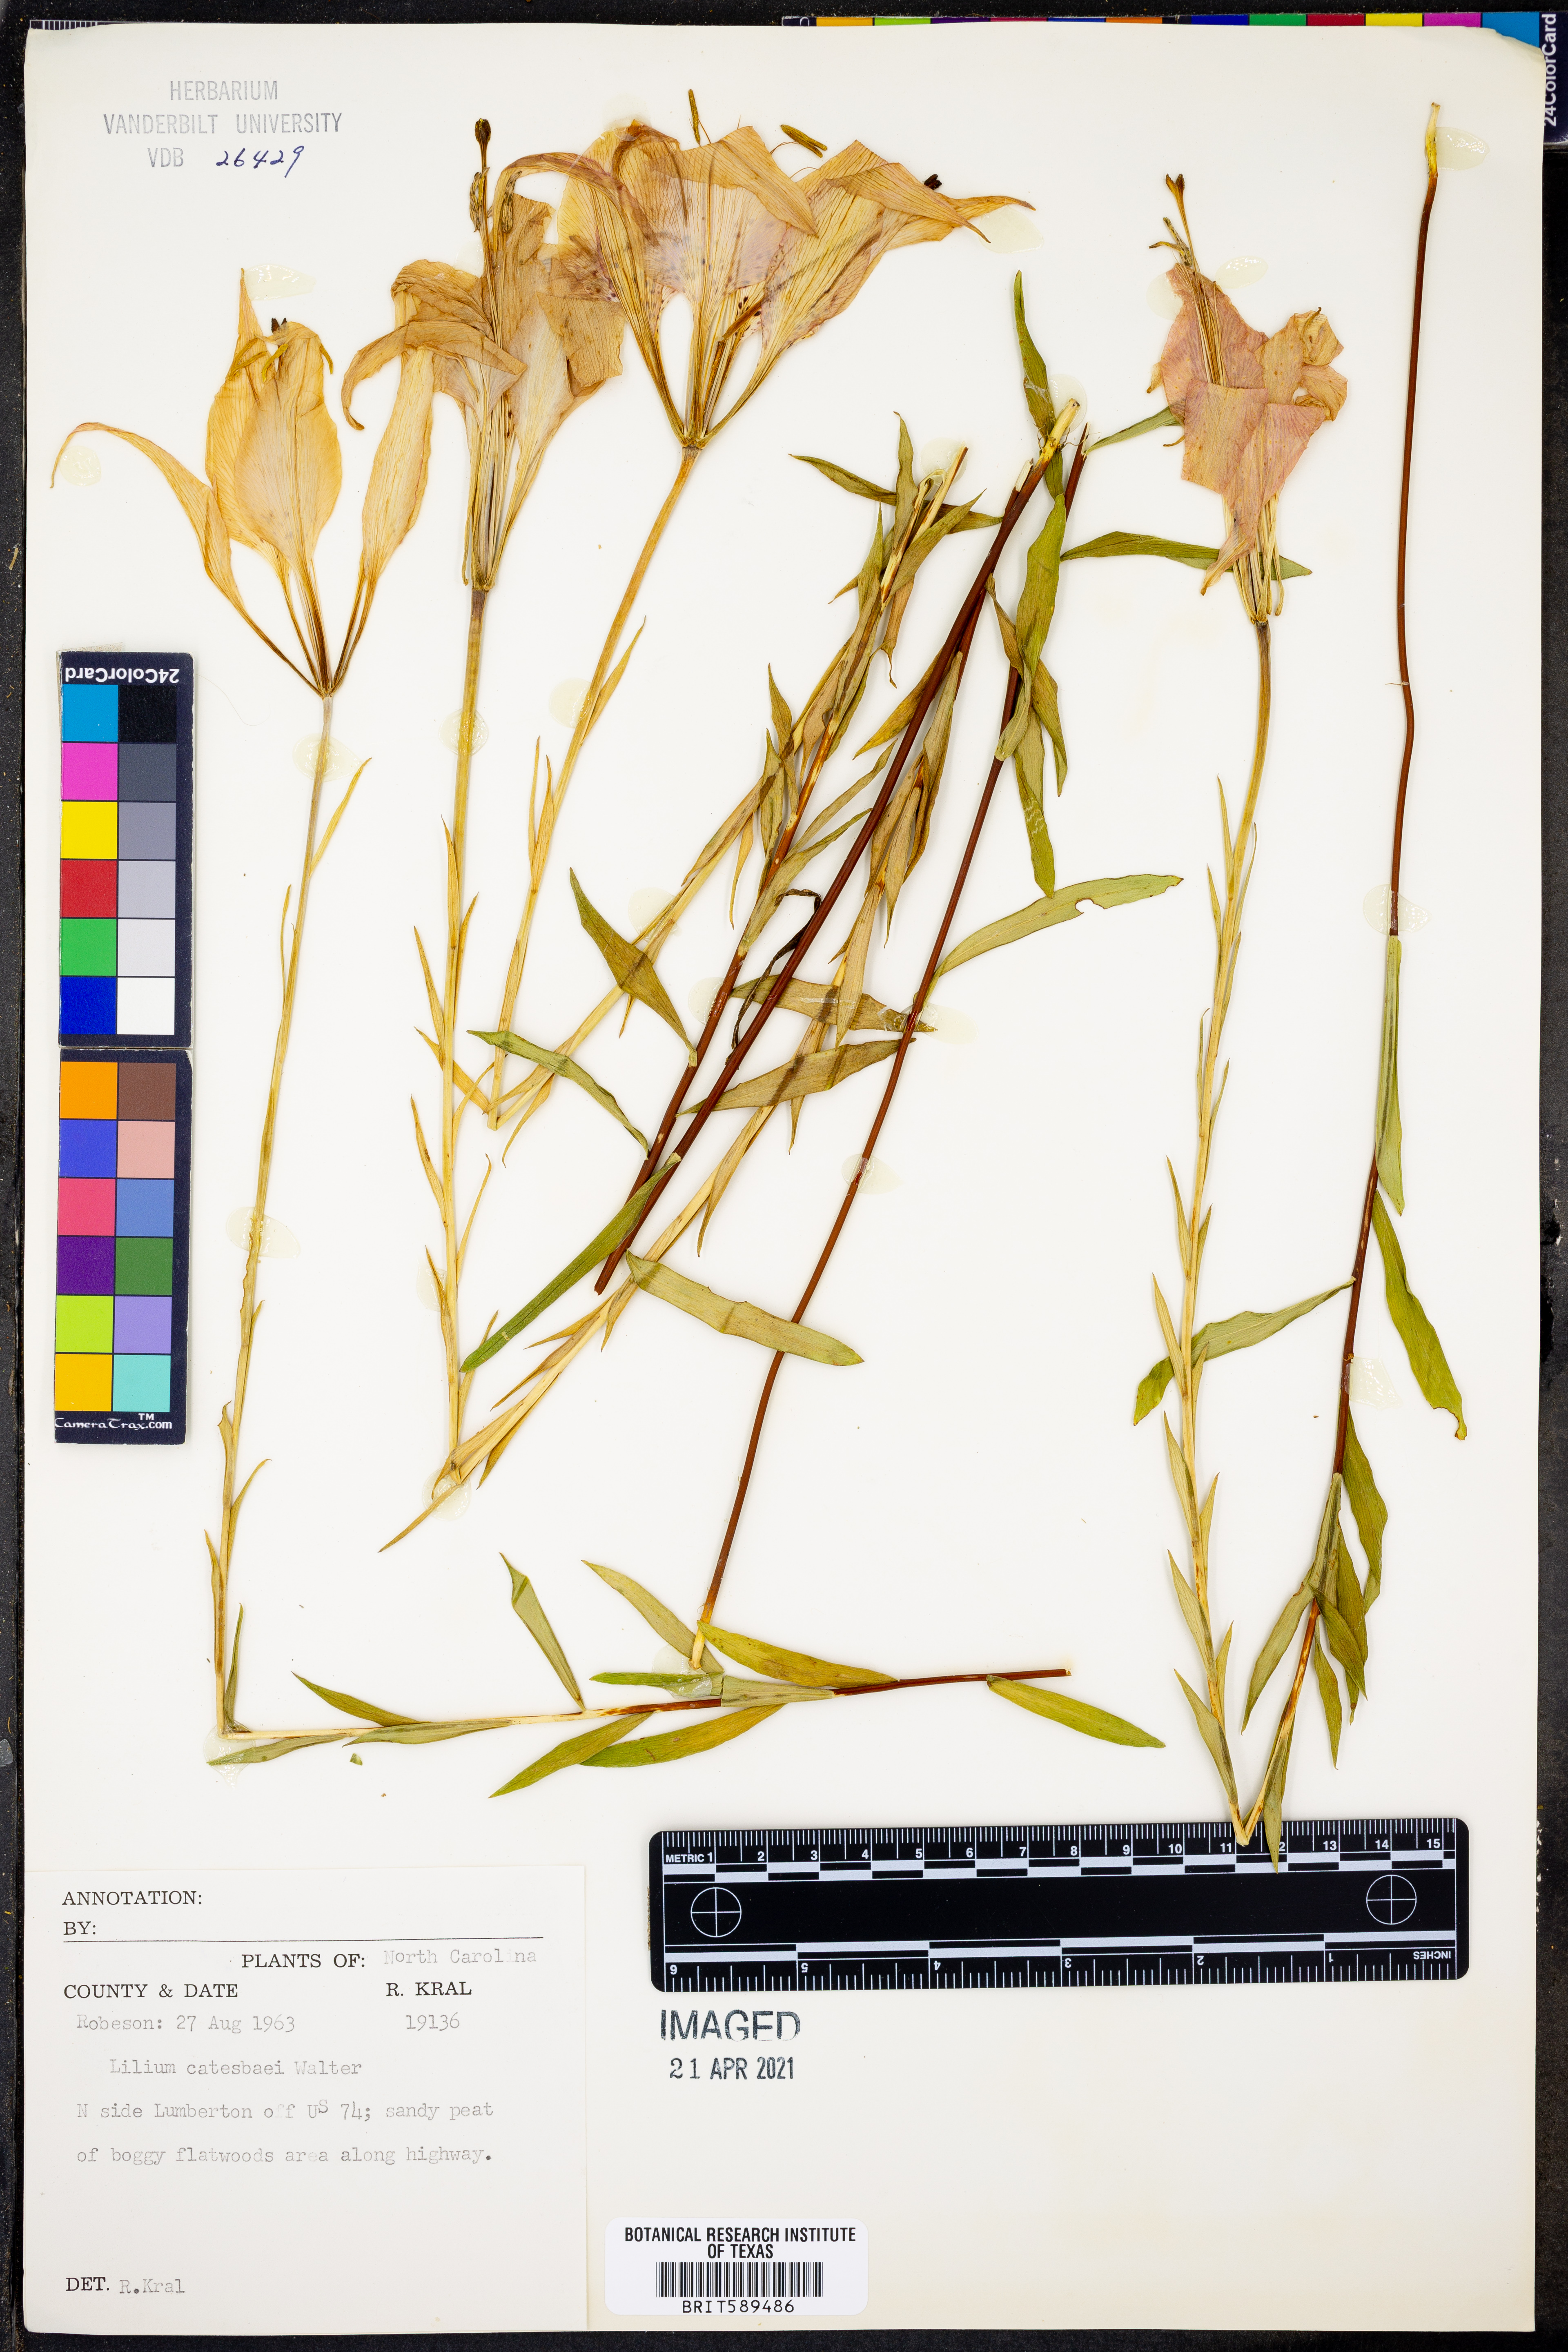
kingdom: Plantae
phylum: Tracheophyta
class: Liliopsida
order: Liliales
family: Liliaceae
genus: Lilium
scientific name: Lilium catesbaei
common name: Catesby's lily
